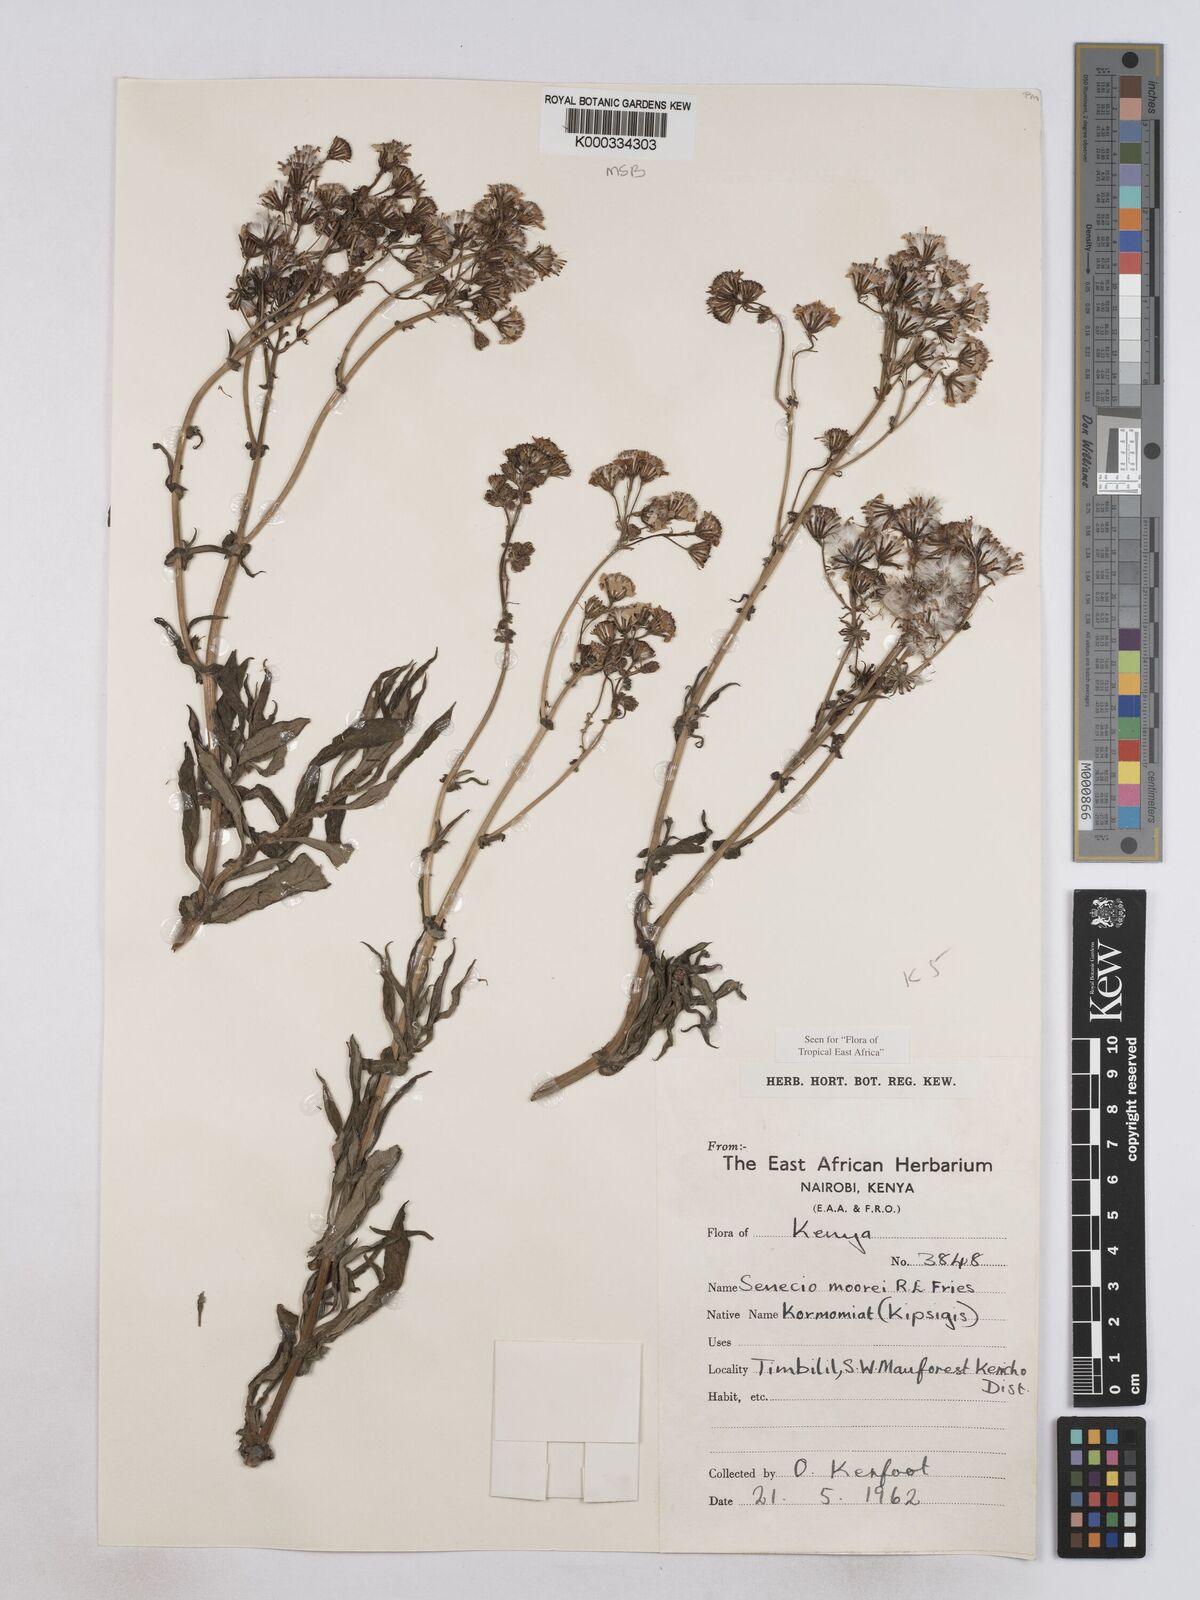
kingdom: Plantae
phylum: Tracheophyta
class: Magnoliopsida
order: Asterales
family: Asteraceae
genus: Senecio
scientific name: Senecio moorei
